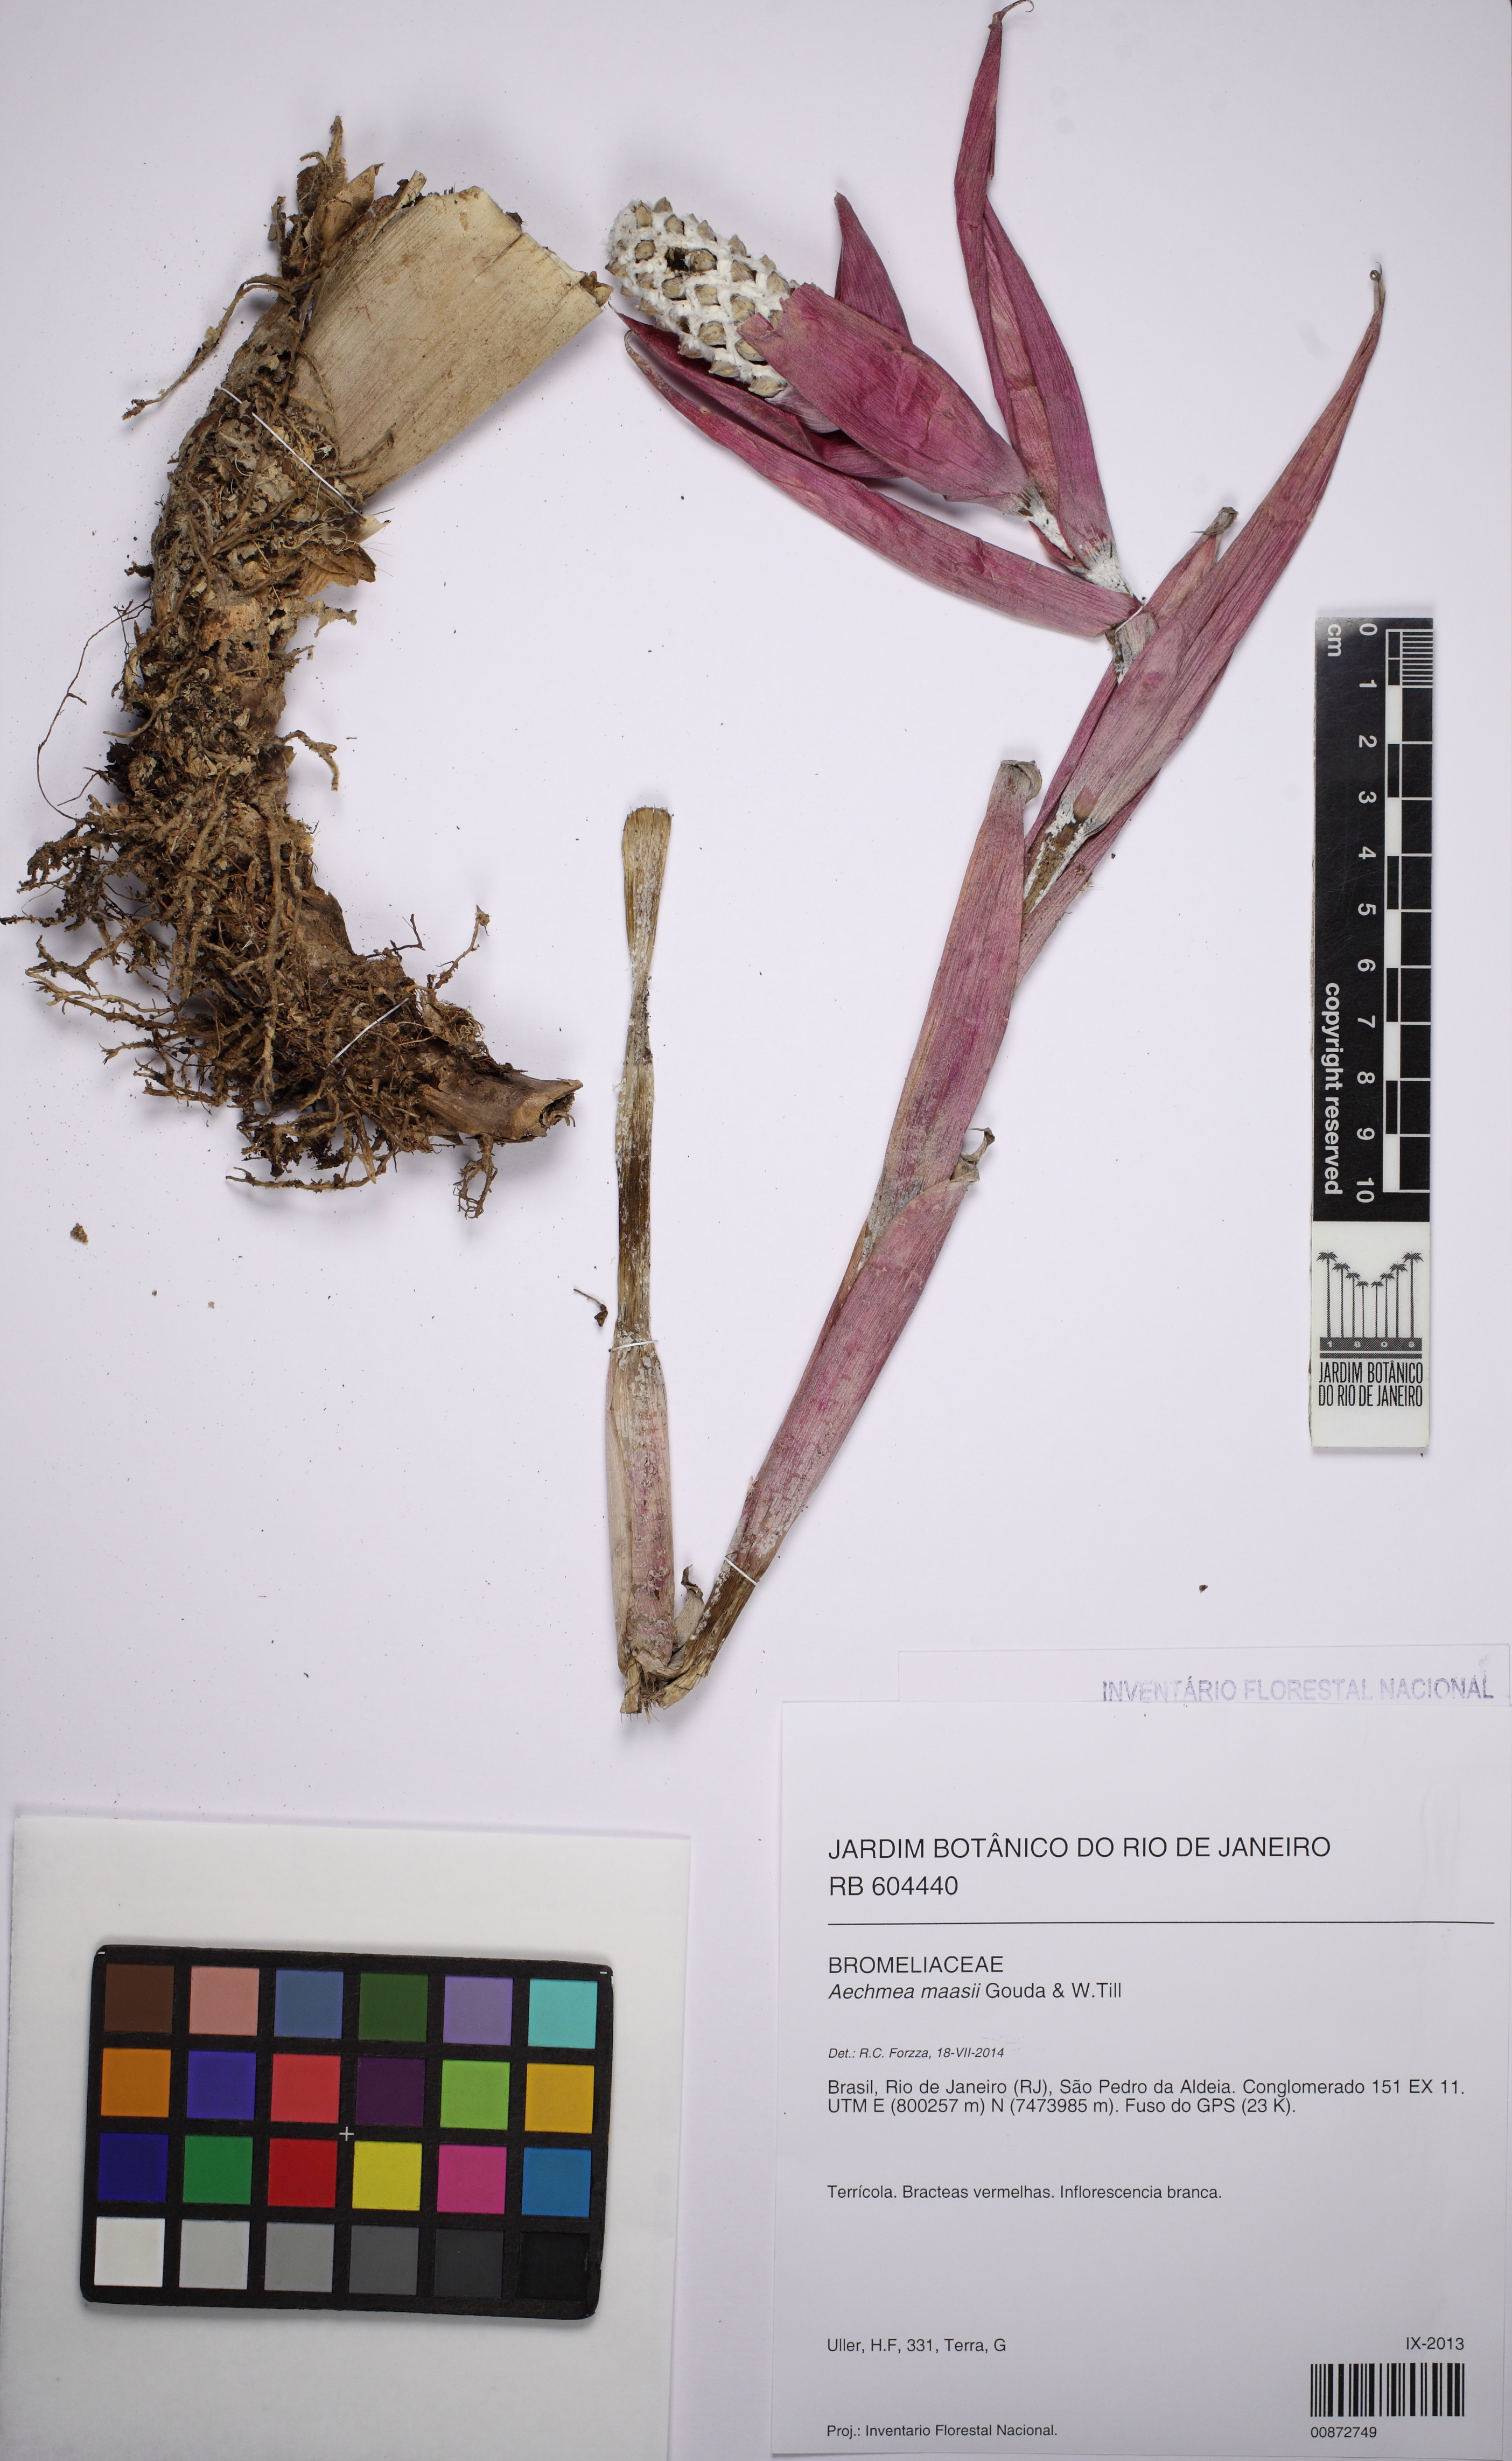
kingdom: Plantae
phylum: Tracheophyta
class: Liliopsida
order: Poales
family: Bromeliaceae
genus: Aechmea
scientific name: Aechmea maasii
